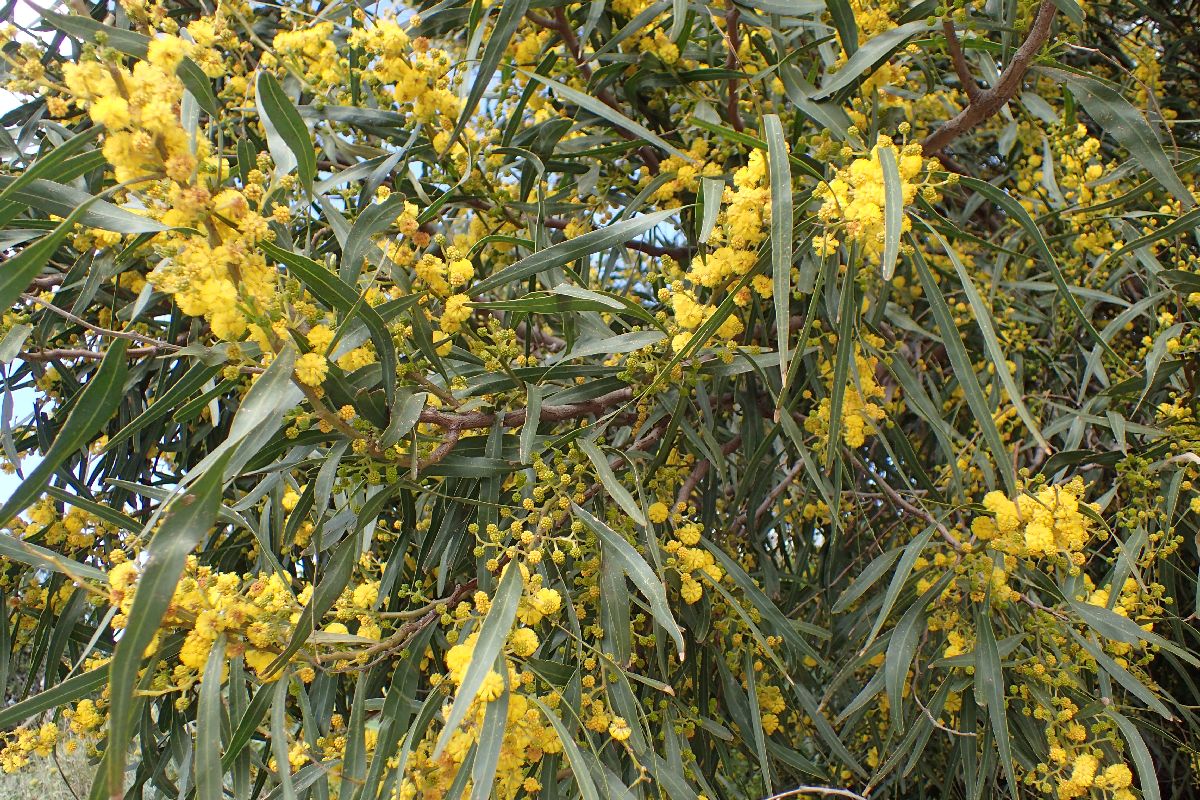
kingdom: Plantae
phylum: Tracheophyta
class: Magnoliopsida
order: Fabales
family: Fabaceae
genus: Acacia
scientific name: Acacia dealbata
